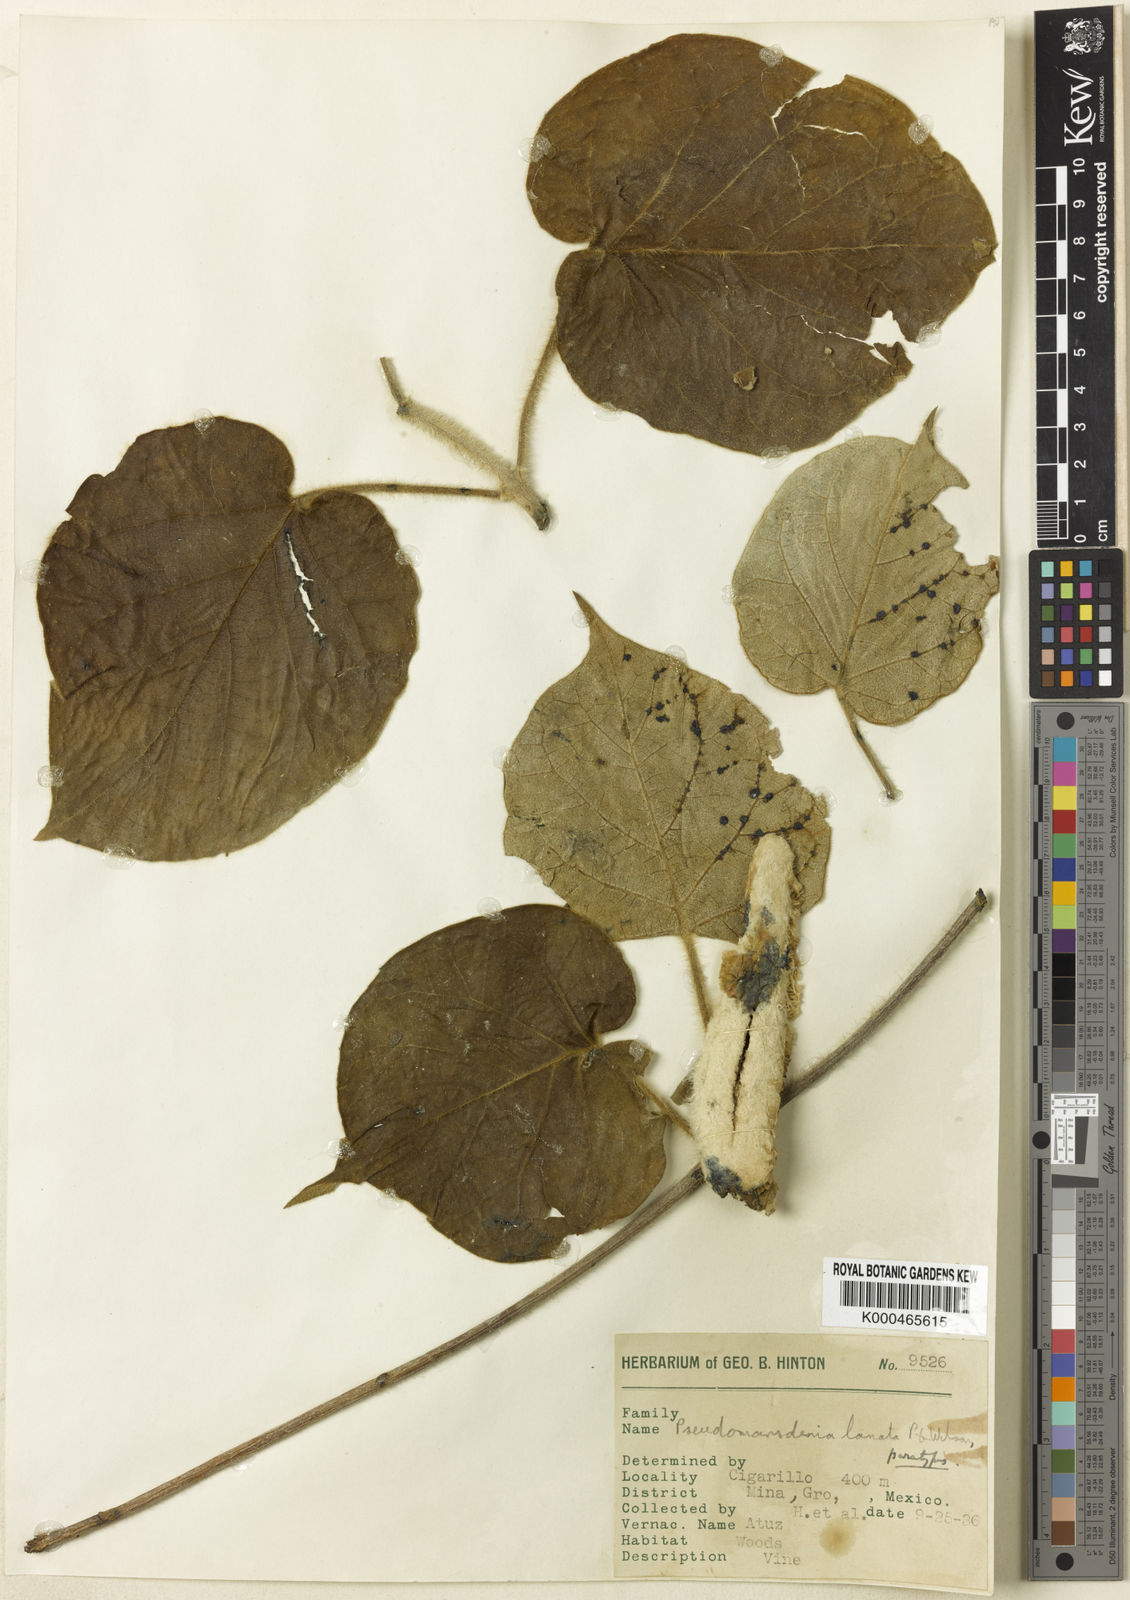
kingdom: Plantae
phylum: Tracheophyta
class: Magnoliopsida
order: Gentianales
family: Apocynaceae
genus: Ruehssia
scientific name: Ruehssia lanata
